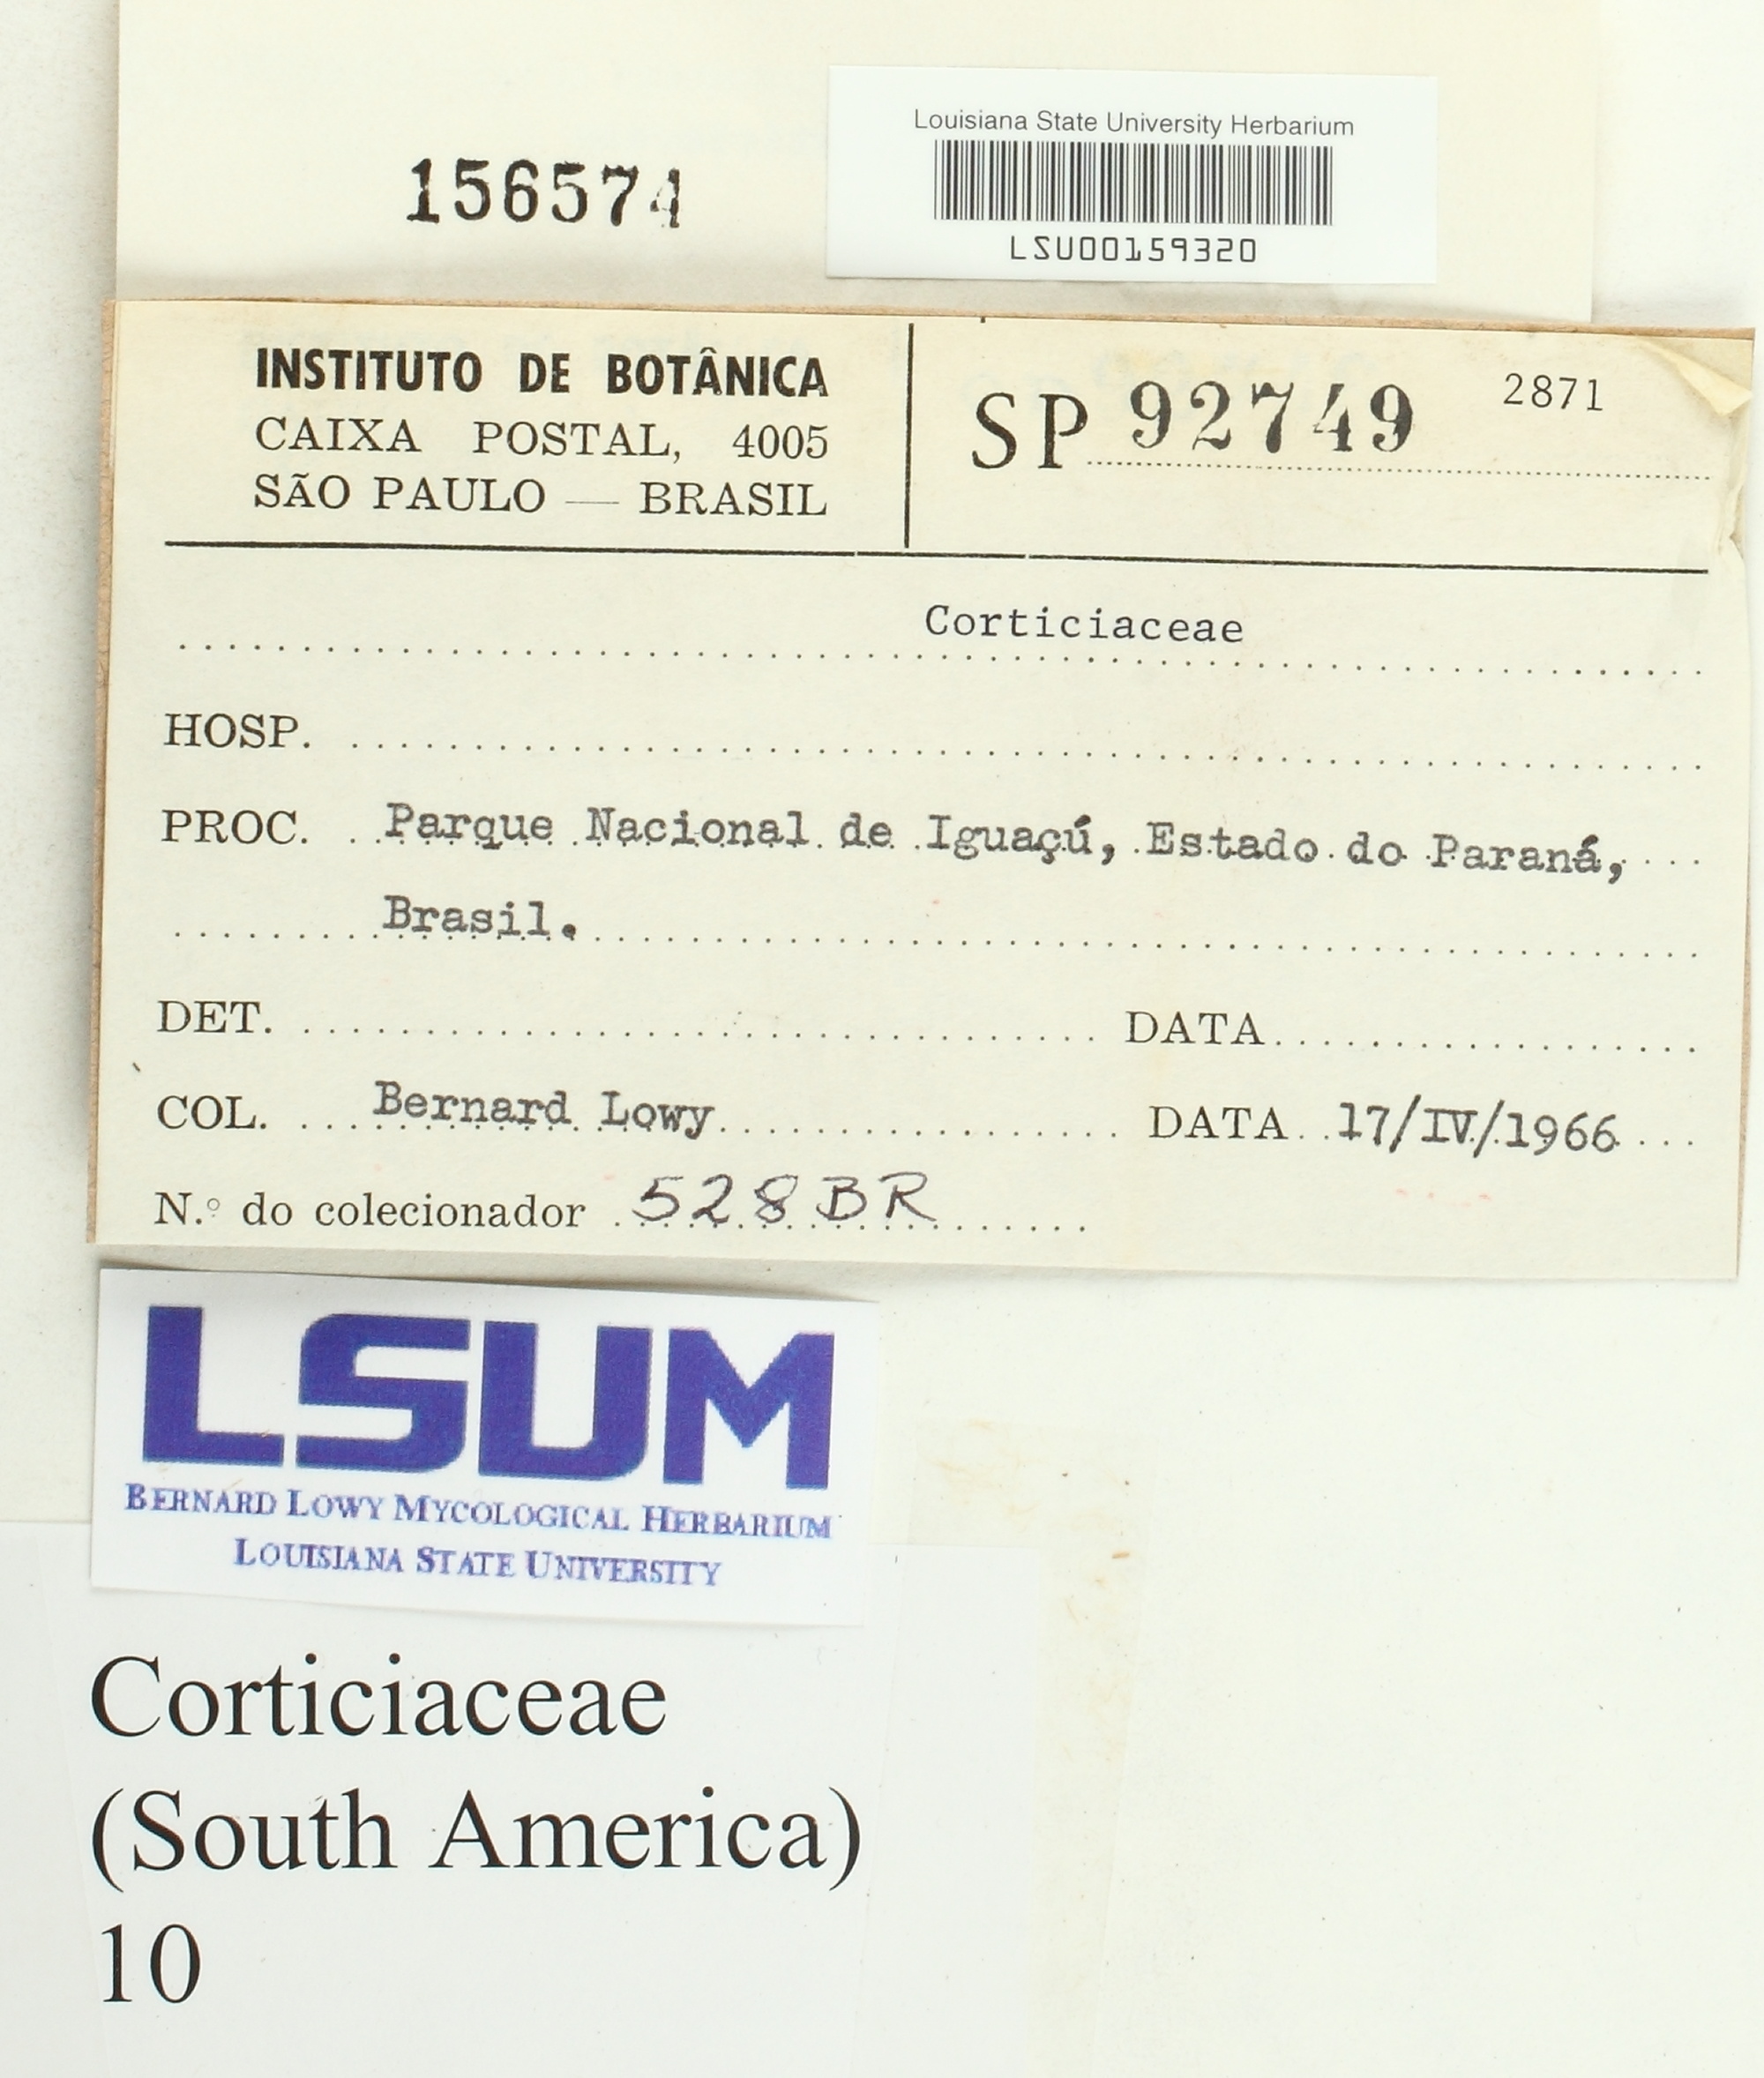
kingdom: Fungi
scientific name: Fungi
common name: Fungi
